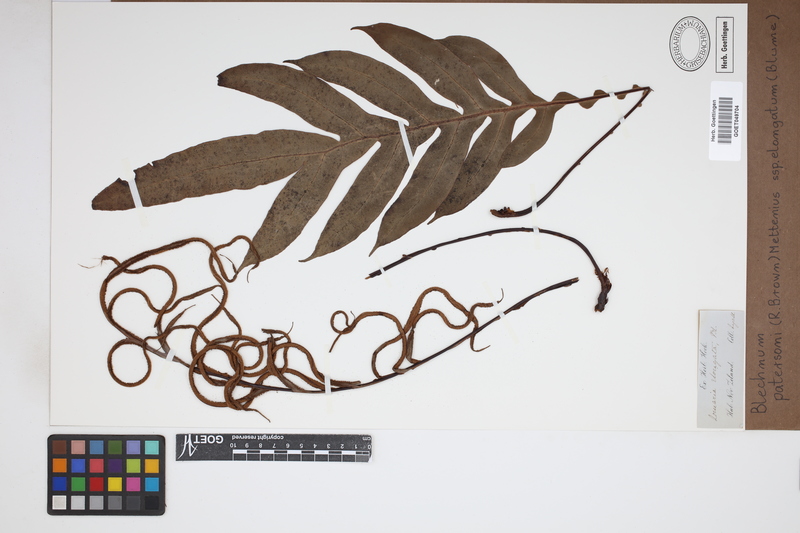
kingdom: Plantae
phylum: Tracheophyta
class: Polypodiopsida
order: Polypodiales
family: Blechnaceae
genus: Austroblechnum
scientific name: Austroblechnum melanocaulon
